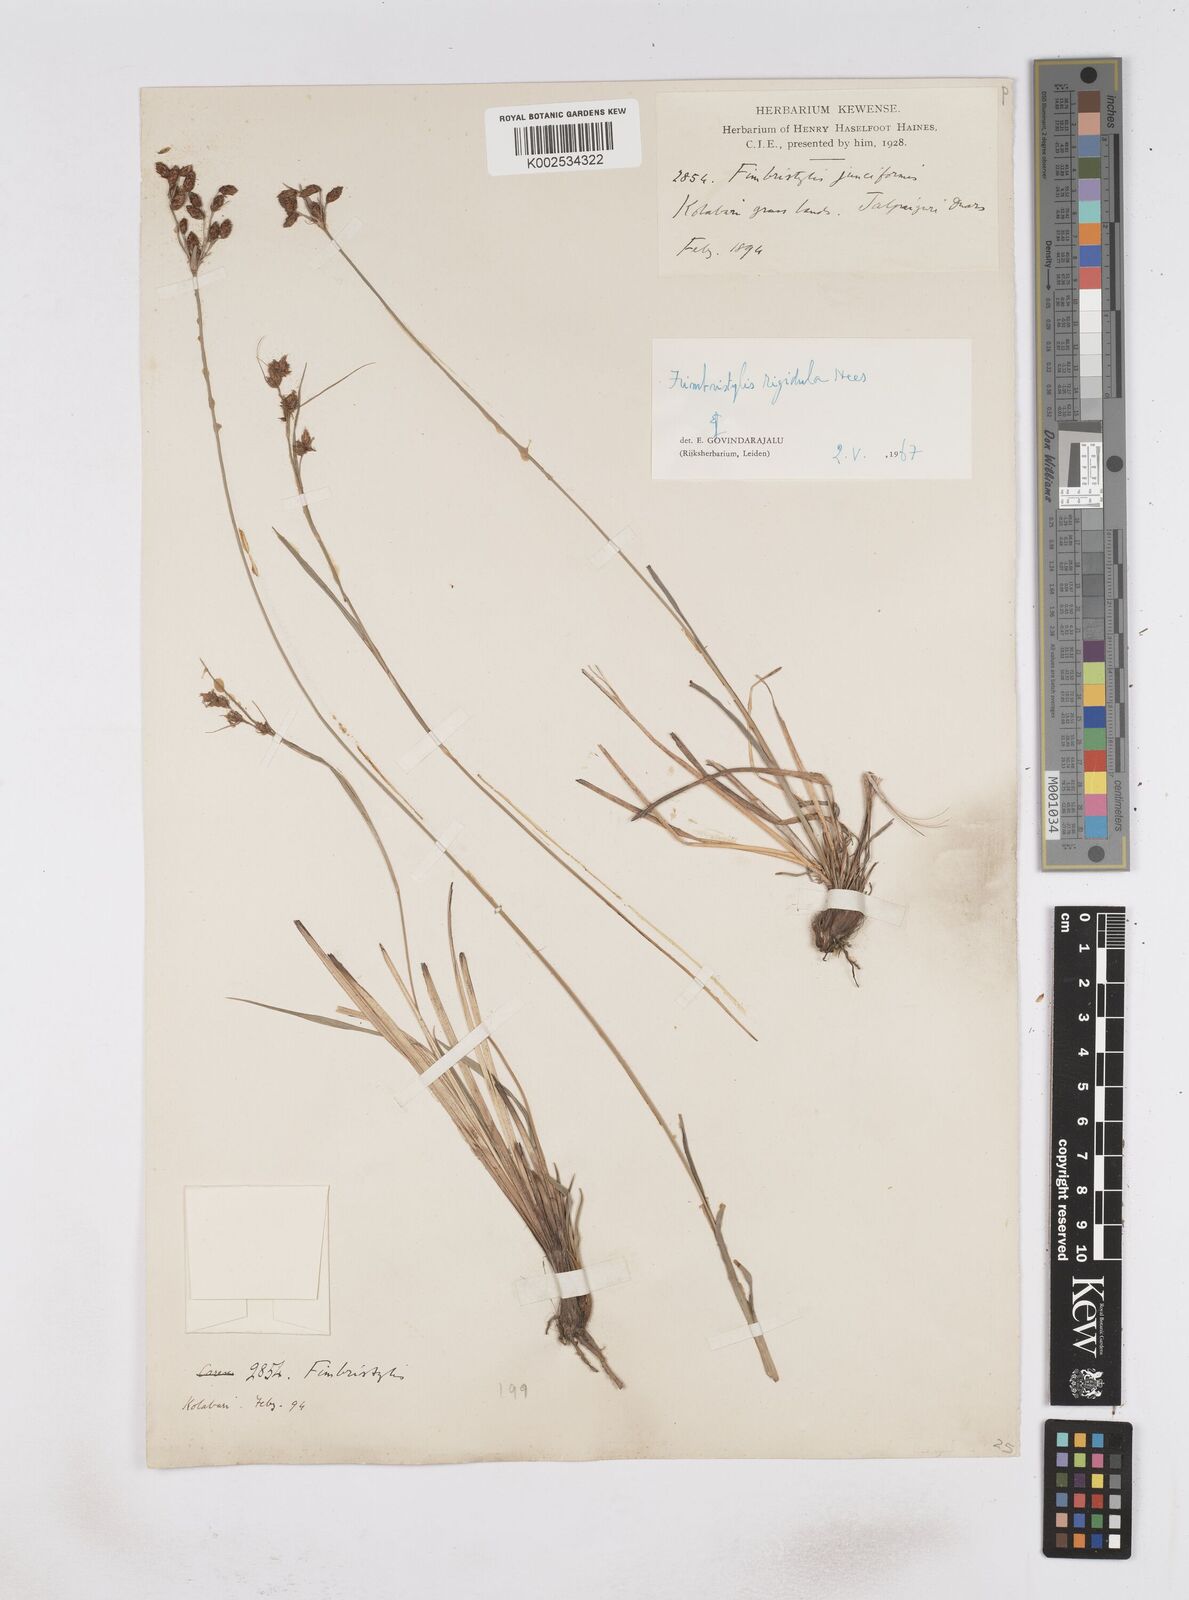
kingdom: Plantae
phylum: Tracheophyta
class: Liliopsida
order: Poales
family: Cyperaceae
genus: Fimbristylis
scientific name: Fimbristylis rigidula
